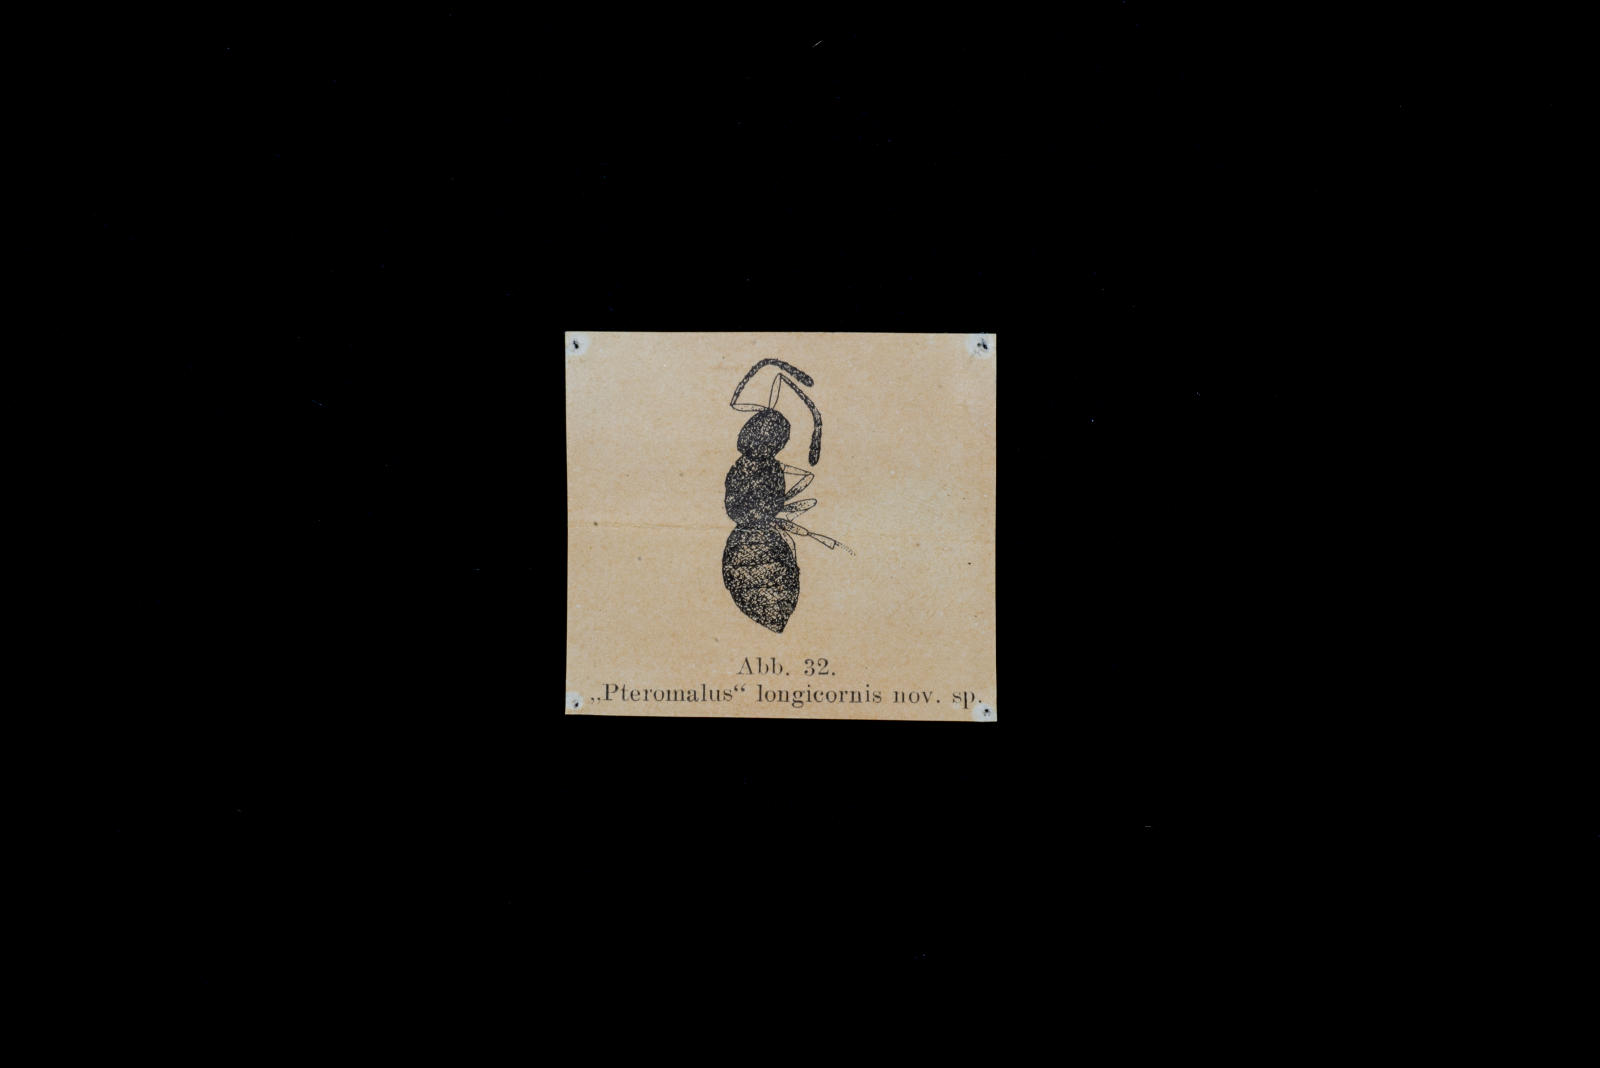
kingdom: Animalia
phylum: Arthropoda
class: Insecta
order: Hymenoptera
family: Pteromalidae
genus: Pteromalus
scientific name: Pteromalus longicornis
